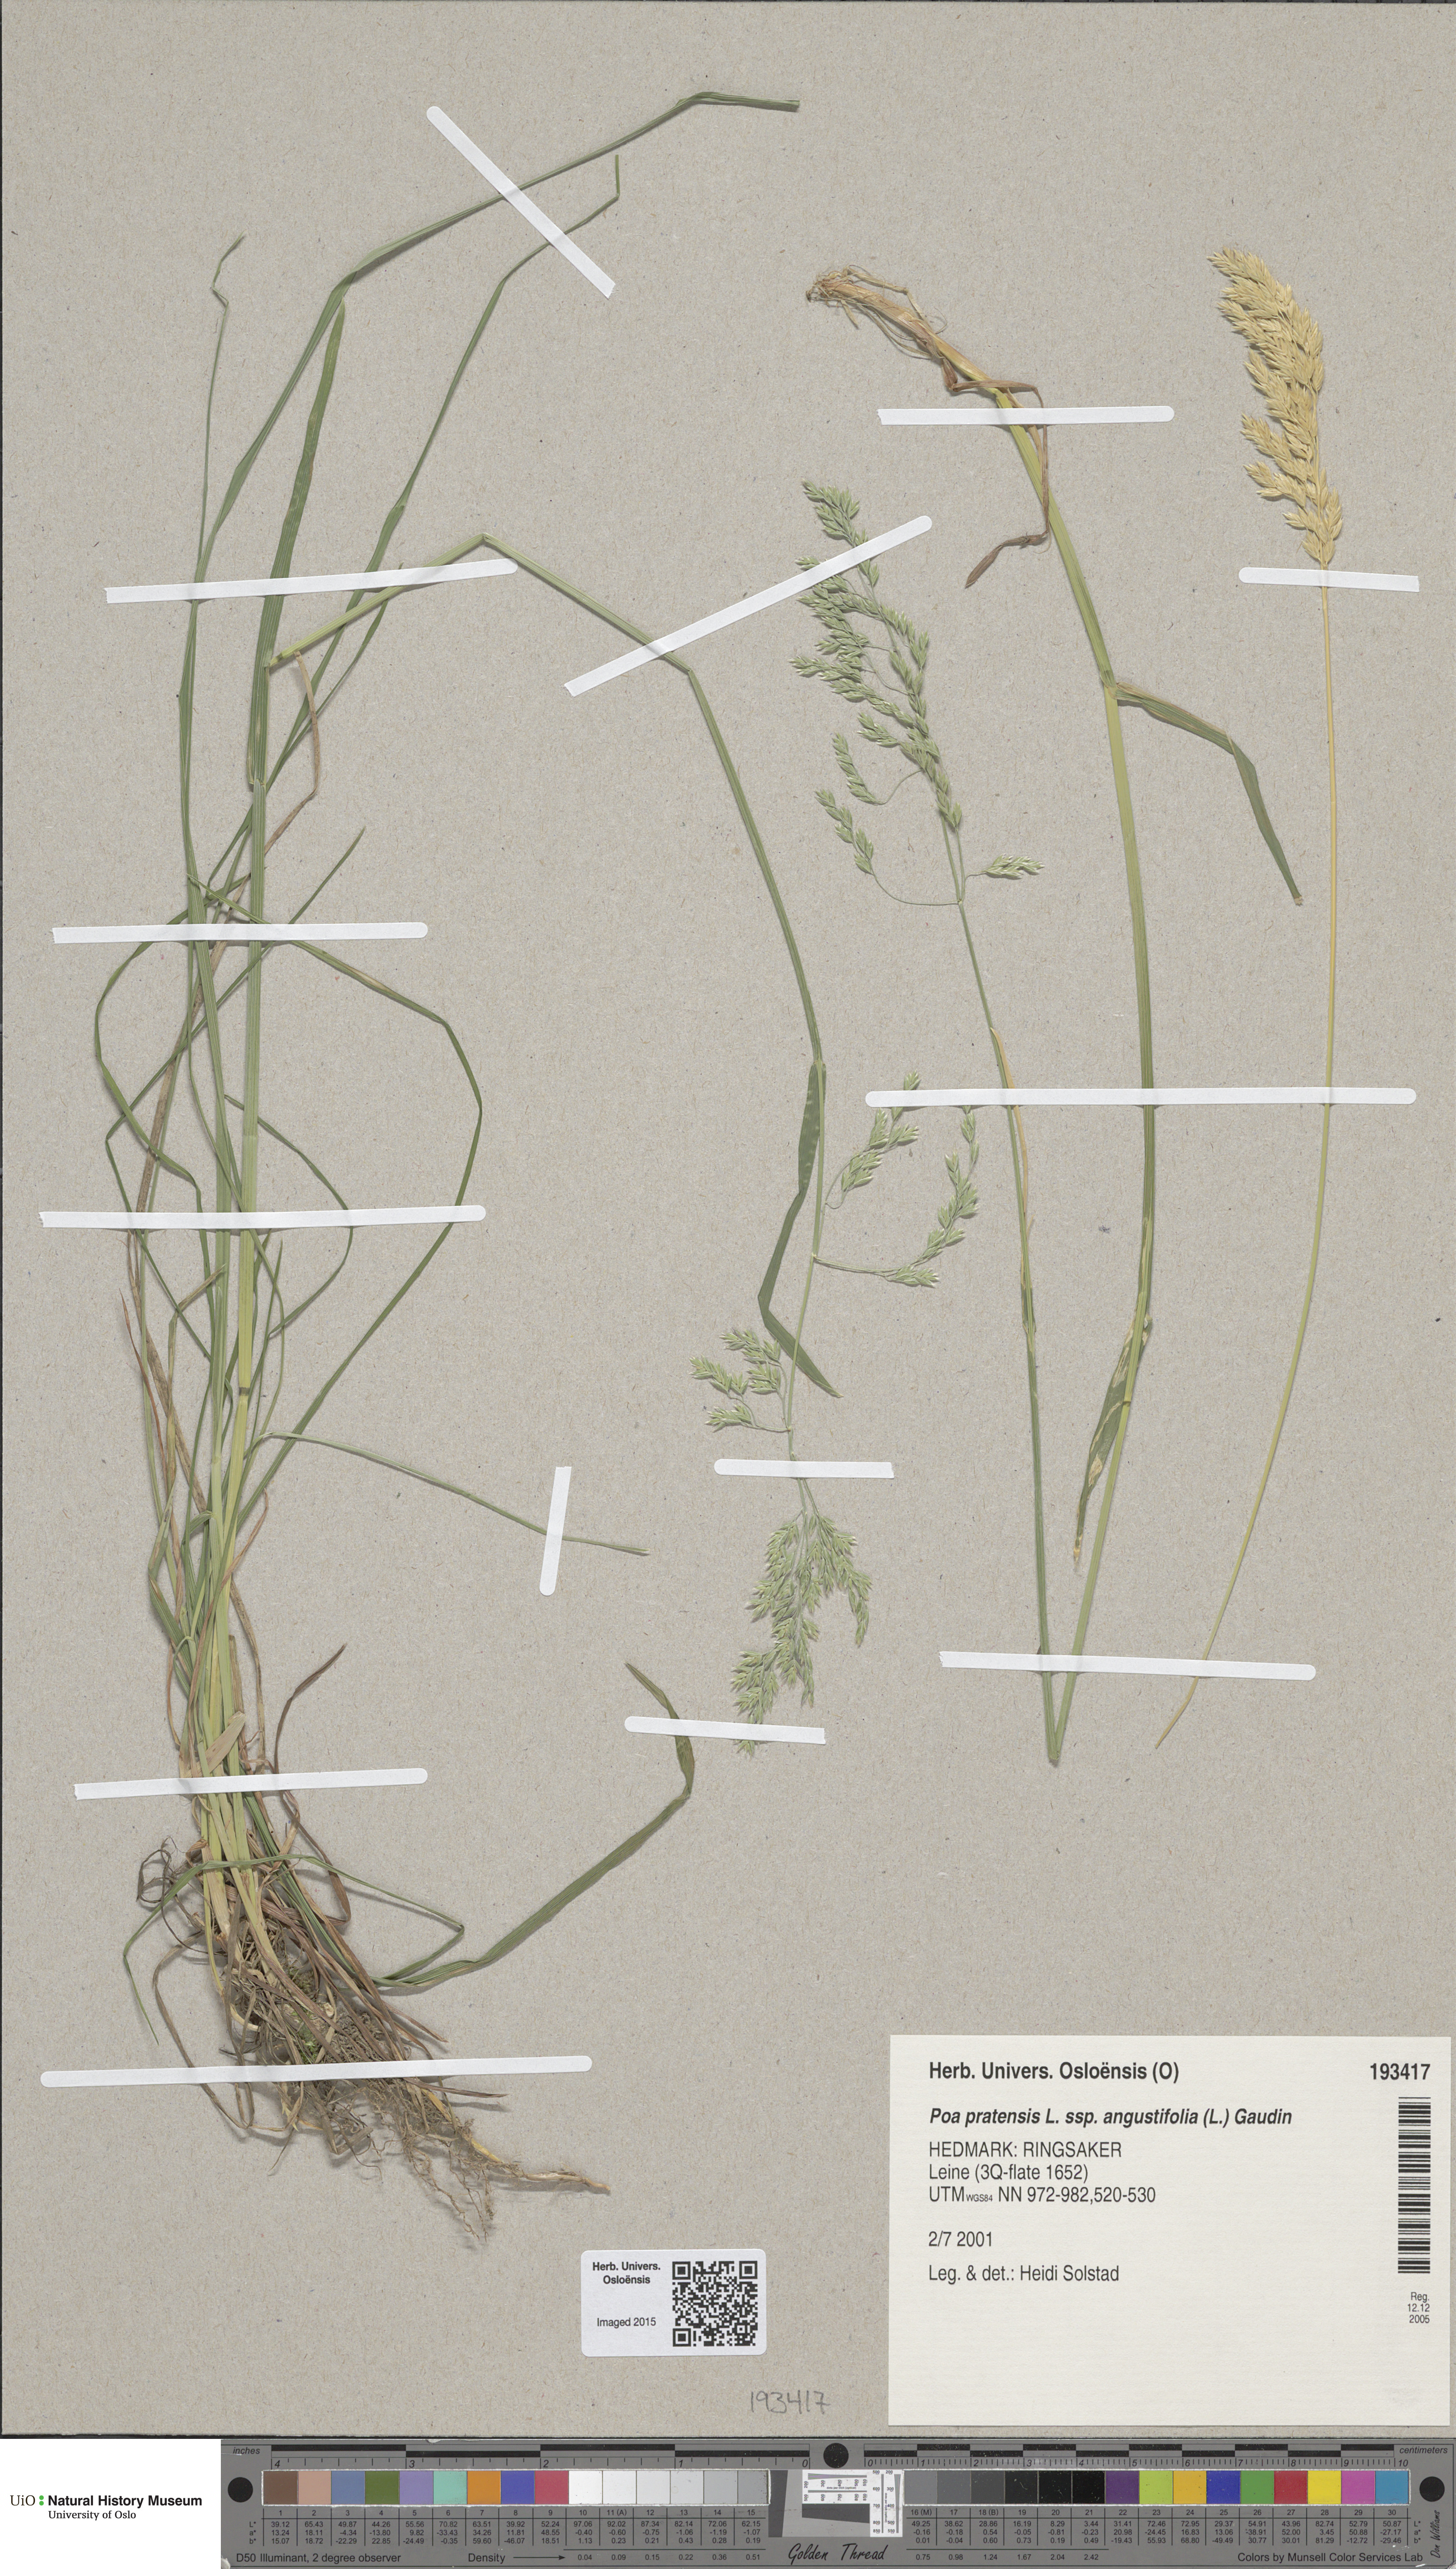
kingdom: Plantae
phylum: Tracheophyta
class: Liliopsida
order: Poales
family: Poaceae
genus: Poa
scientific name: Poa angustifolia
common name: Narrow-leaved meadow-grass
